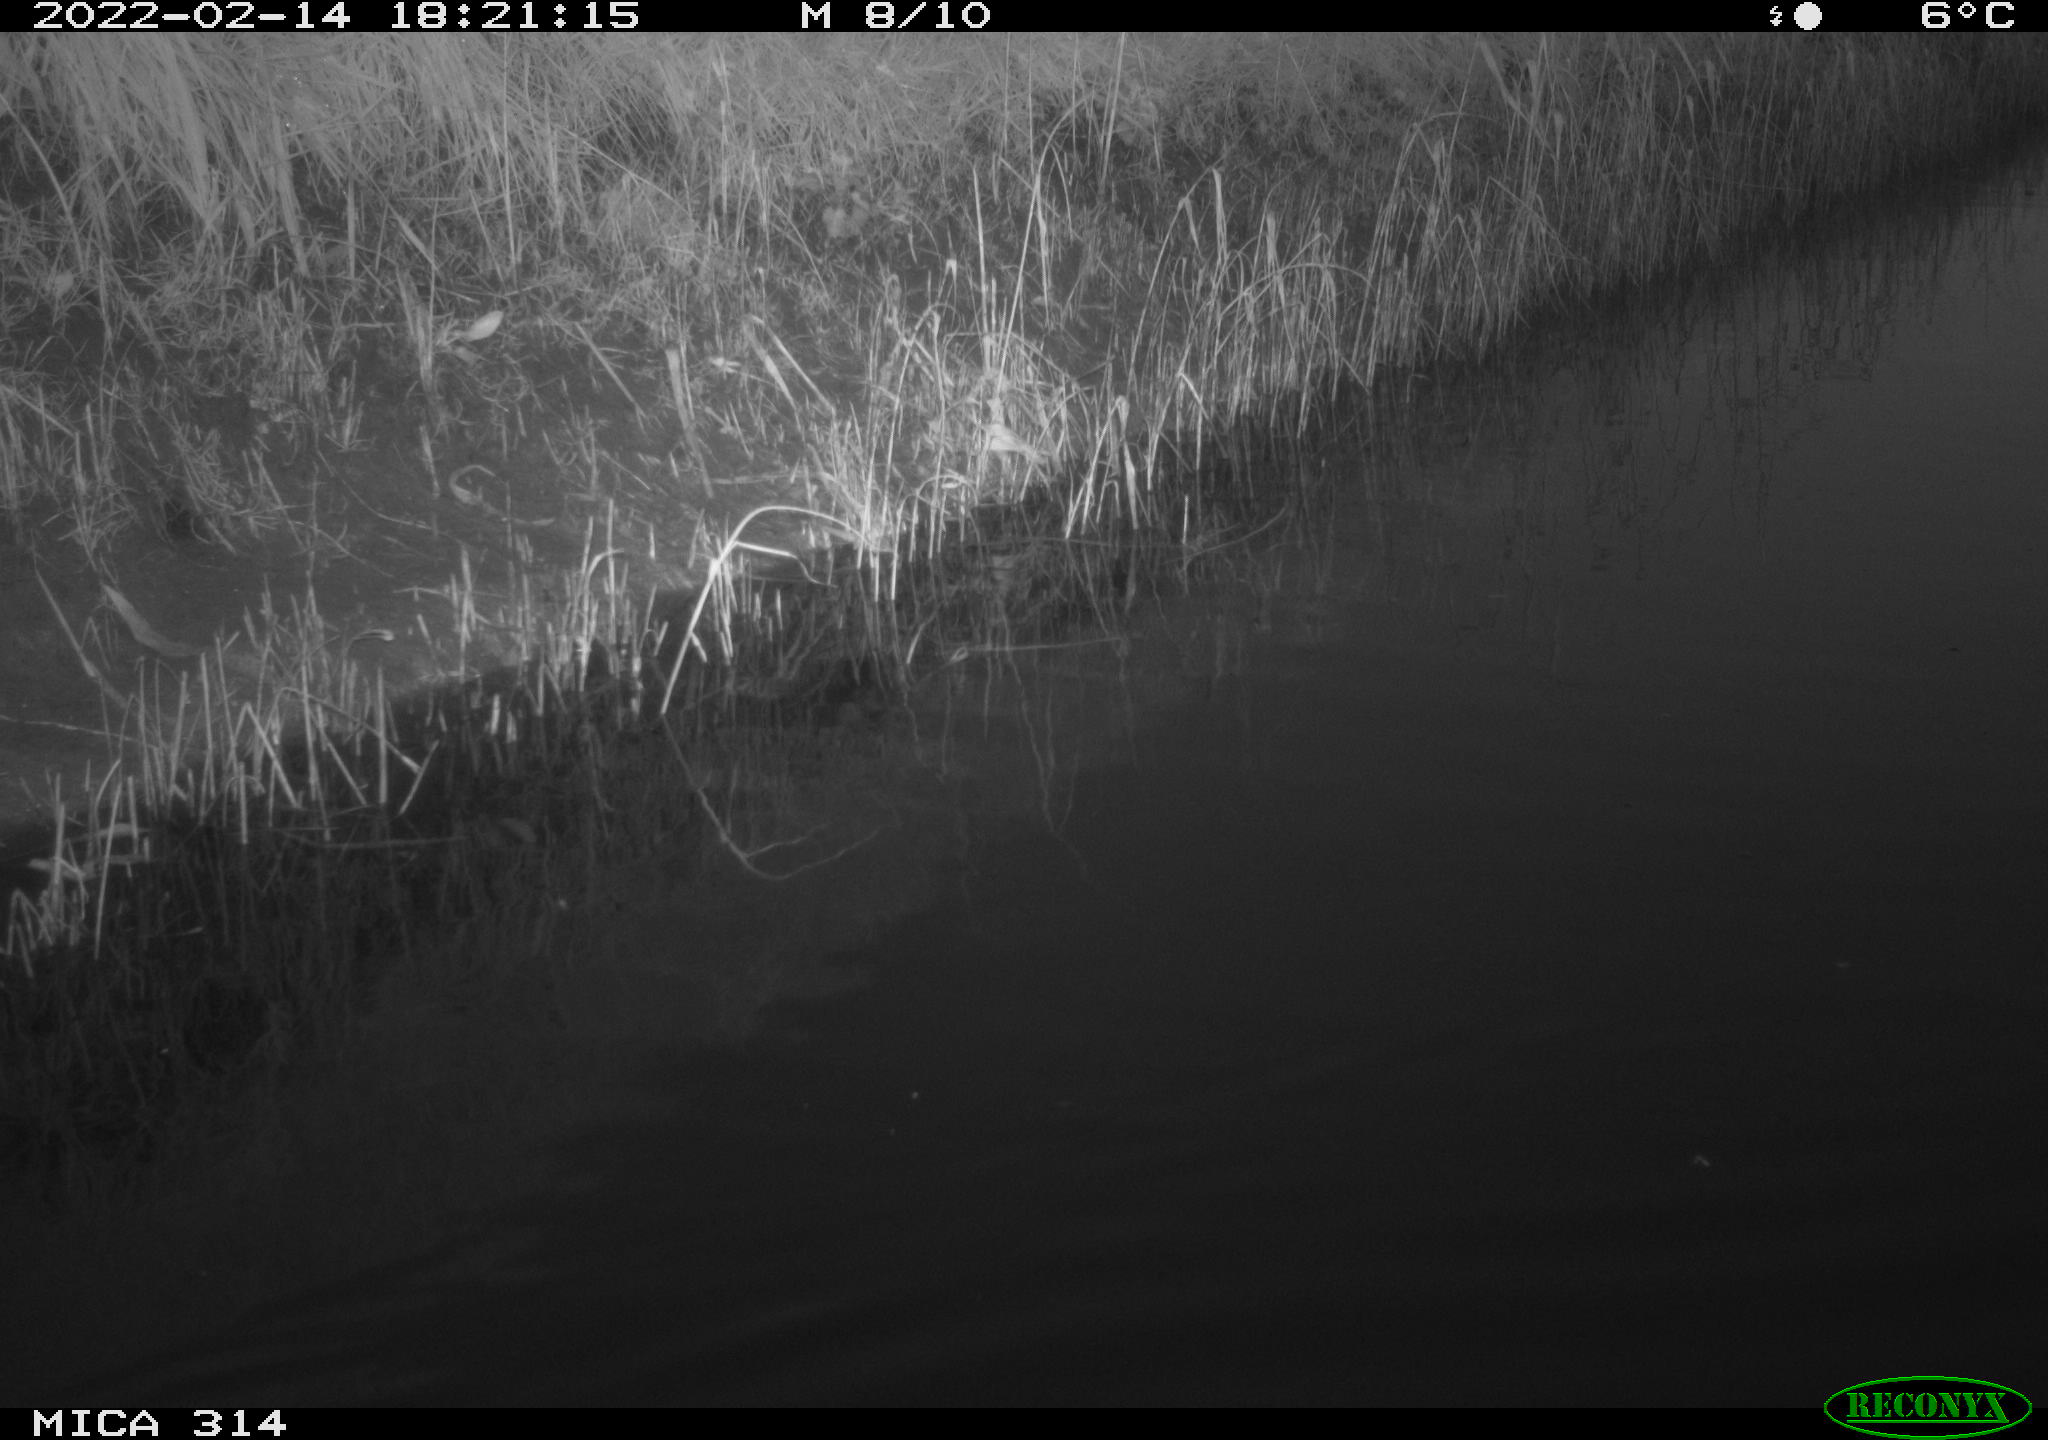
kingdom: Animalia
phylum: Chordata
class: Aves
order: Gruiformes
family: Rallidae
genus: Gallinula
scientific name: Gallinula chloropus
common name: Common moorhen
